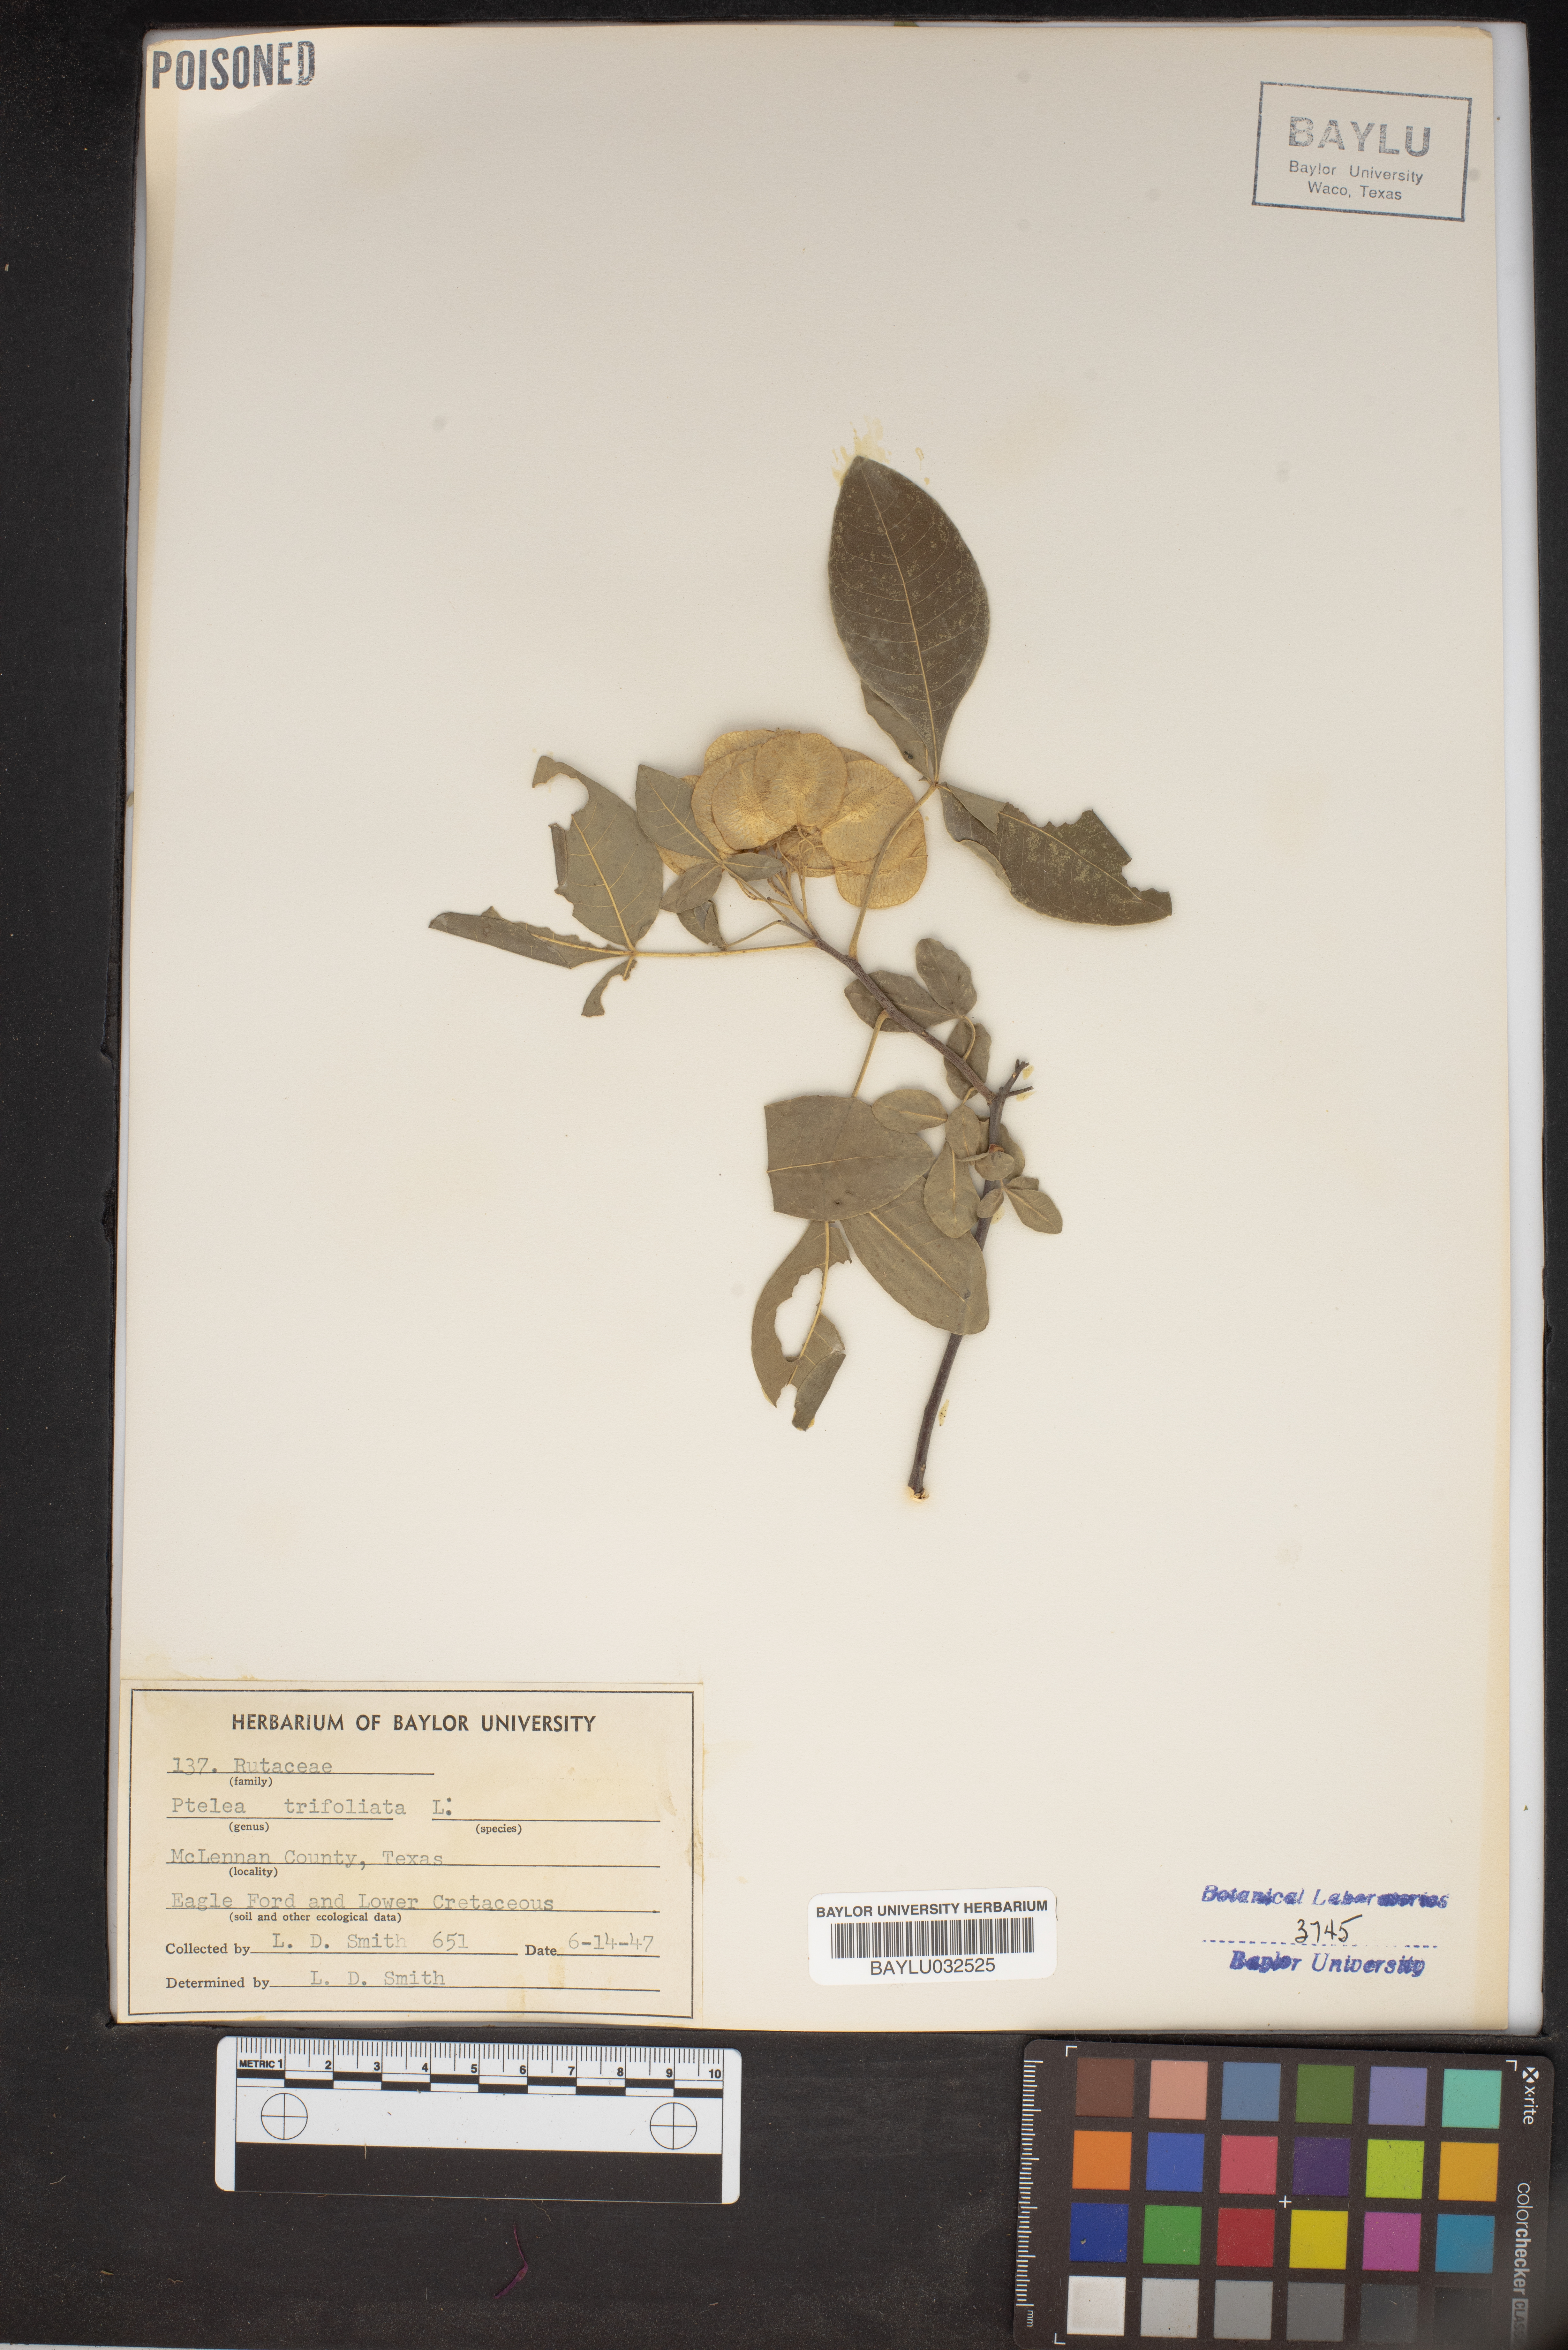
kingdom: Plantae
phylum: Tracheophyta
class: Magnoliopsida
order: Sapindales
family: Rutaceae
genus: Ptelea
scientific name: Ptelea trifoliata
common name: Common hop-tree
